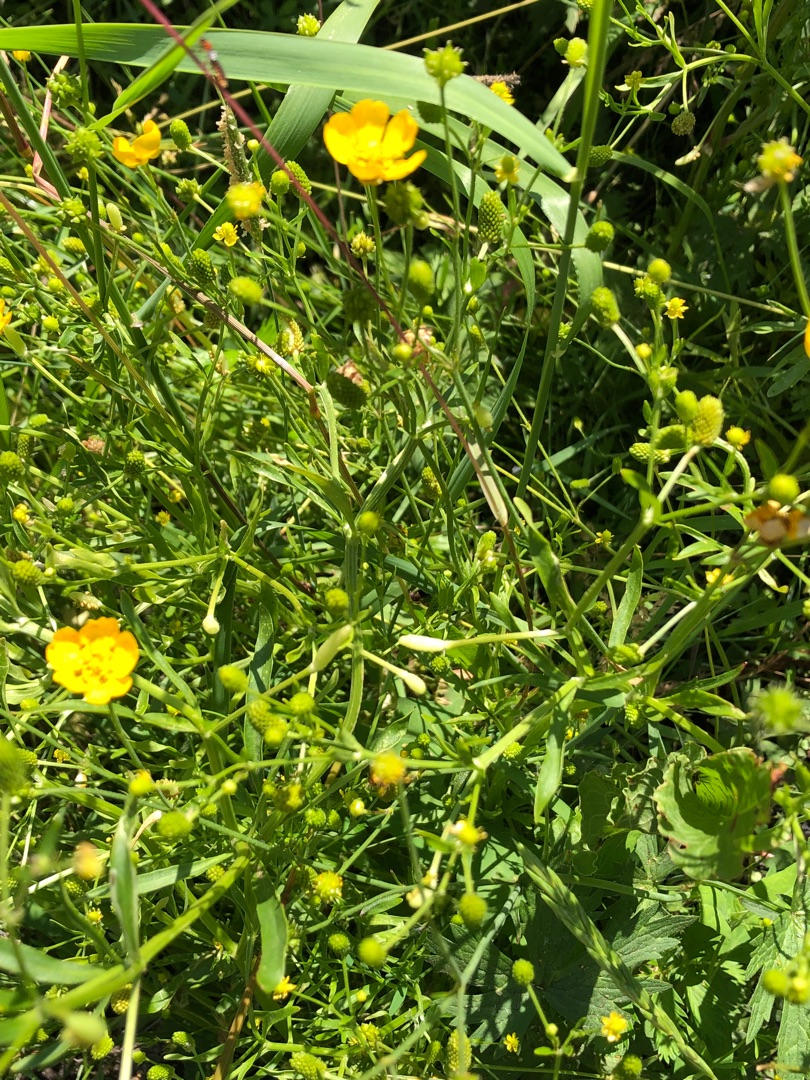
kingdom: Plantae
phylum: Tracheophyta
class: Magnoliopsida
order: Ranunculales
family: Ranunculaceae
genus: Ranunculus
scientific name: Ranunculus sceleratus
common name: Tigger-ranunkel
